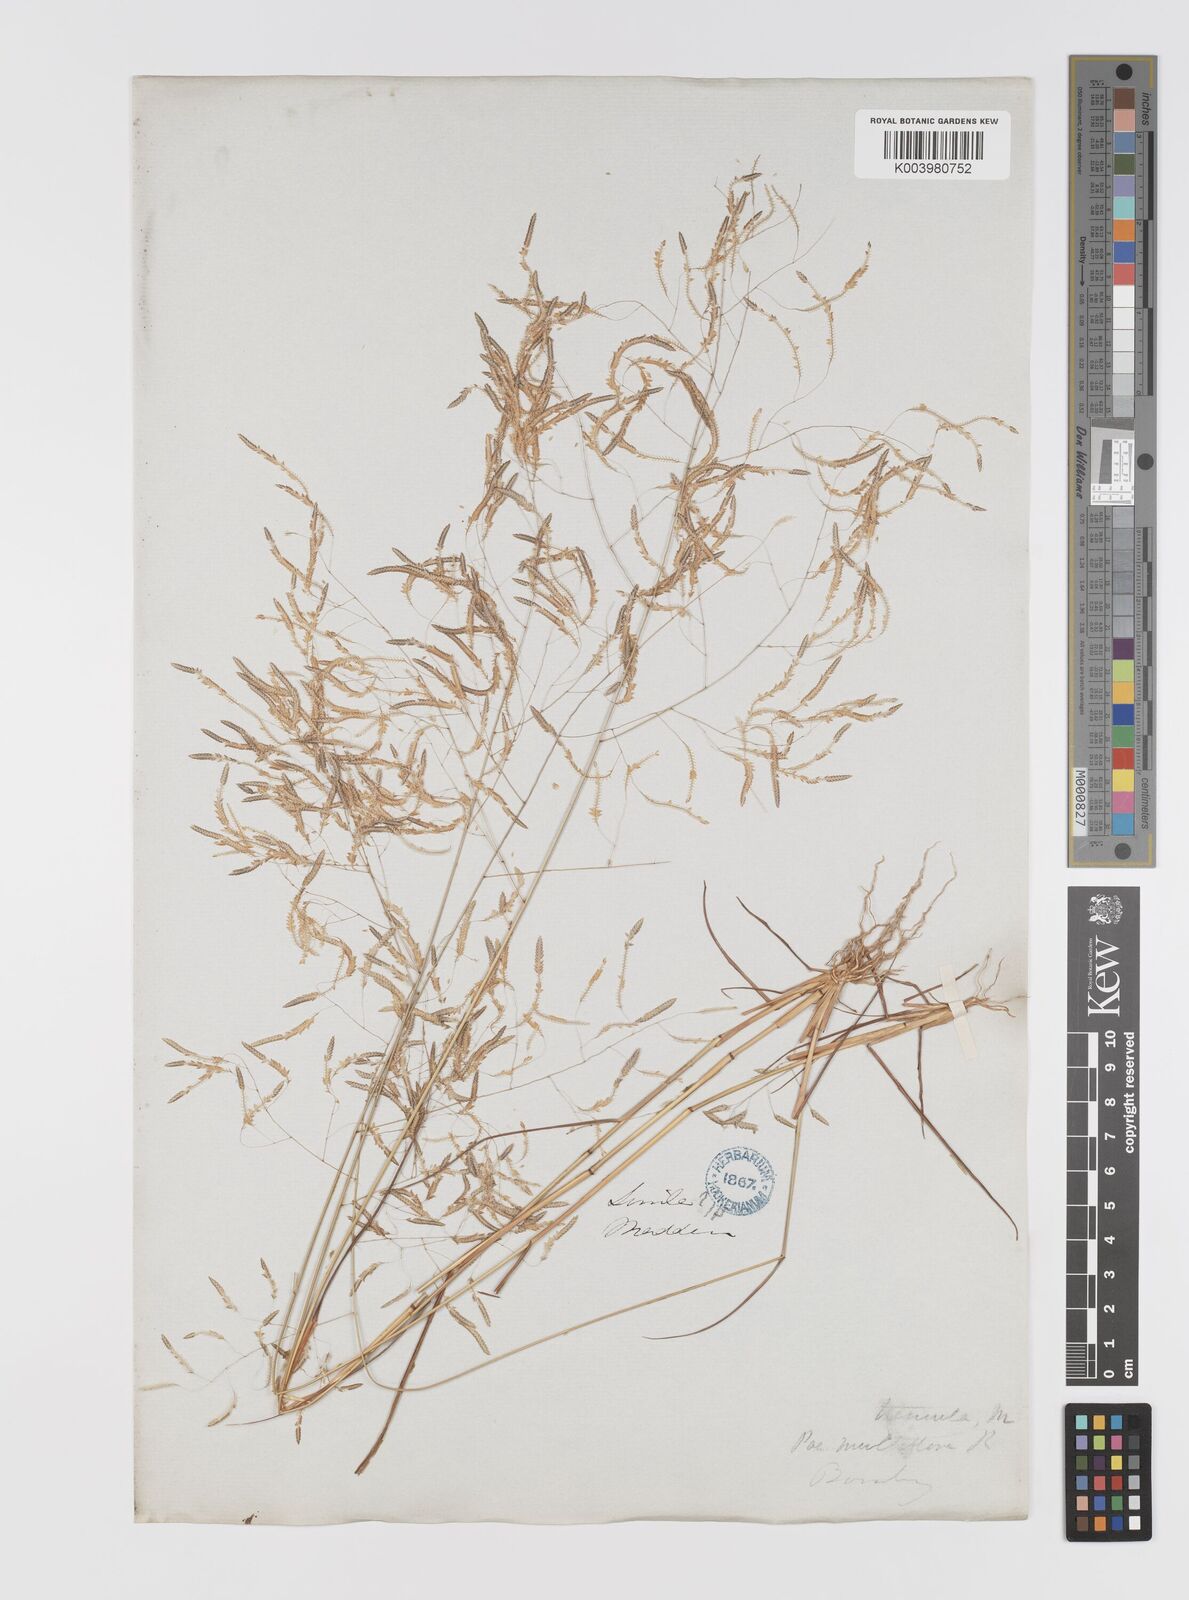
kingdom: Plantae
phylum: Tracheophyta
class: Liliopsida
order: Poales
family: Poaceae
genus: Eragrostis
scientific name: Eragrostis tremula
